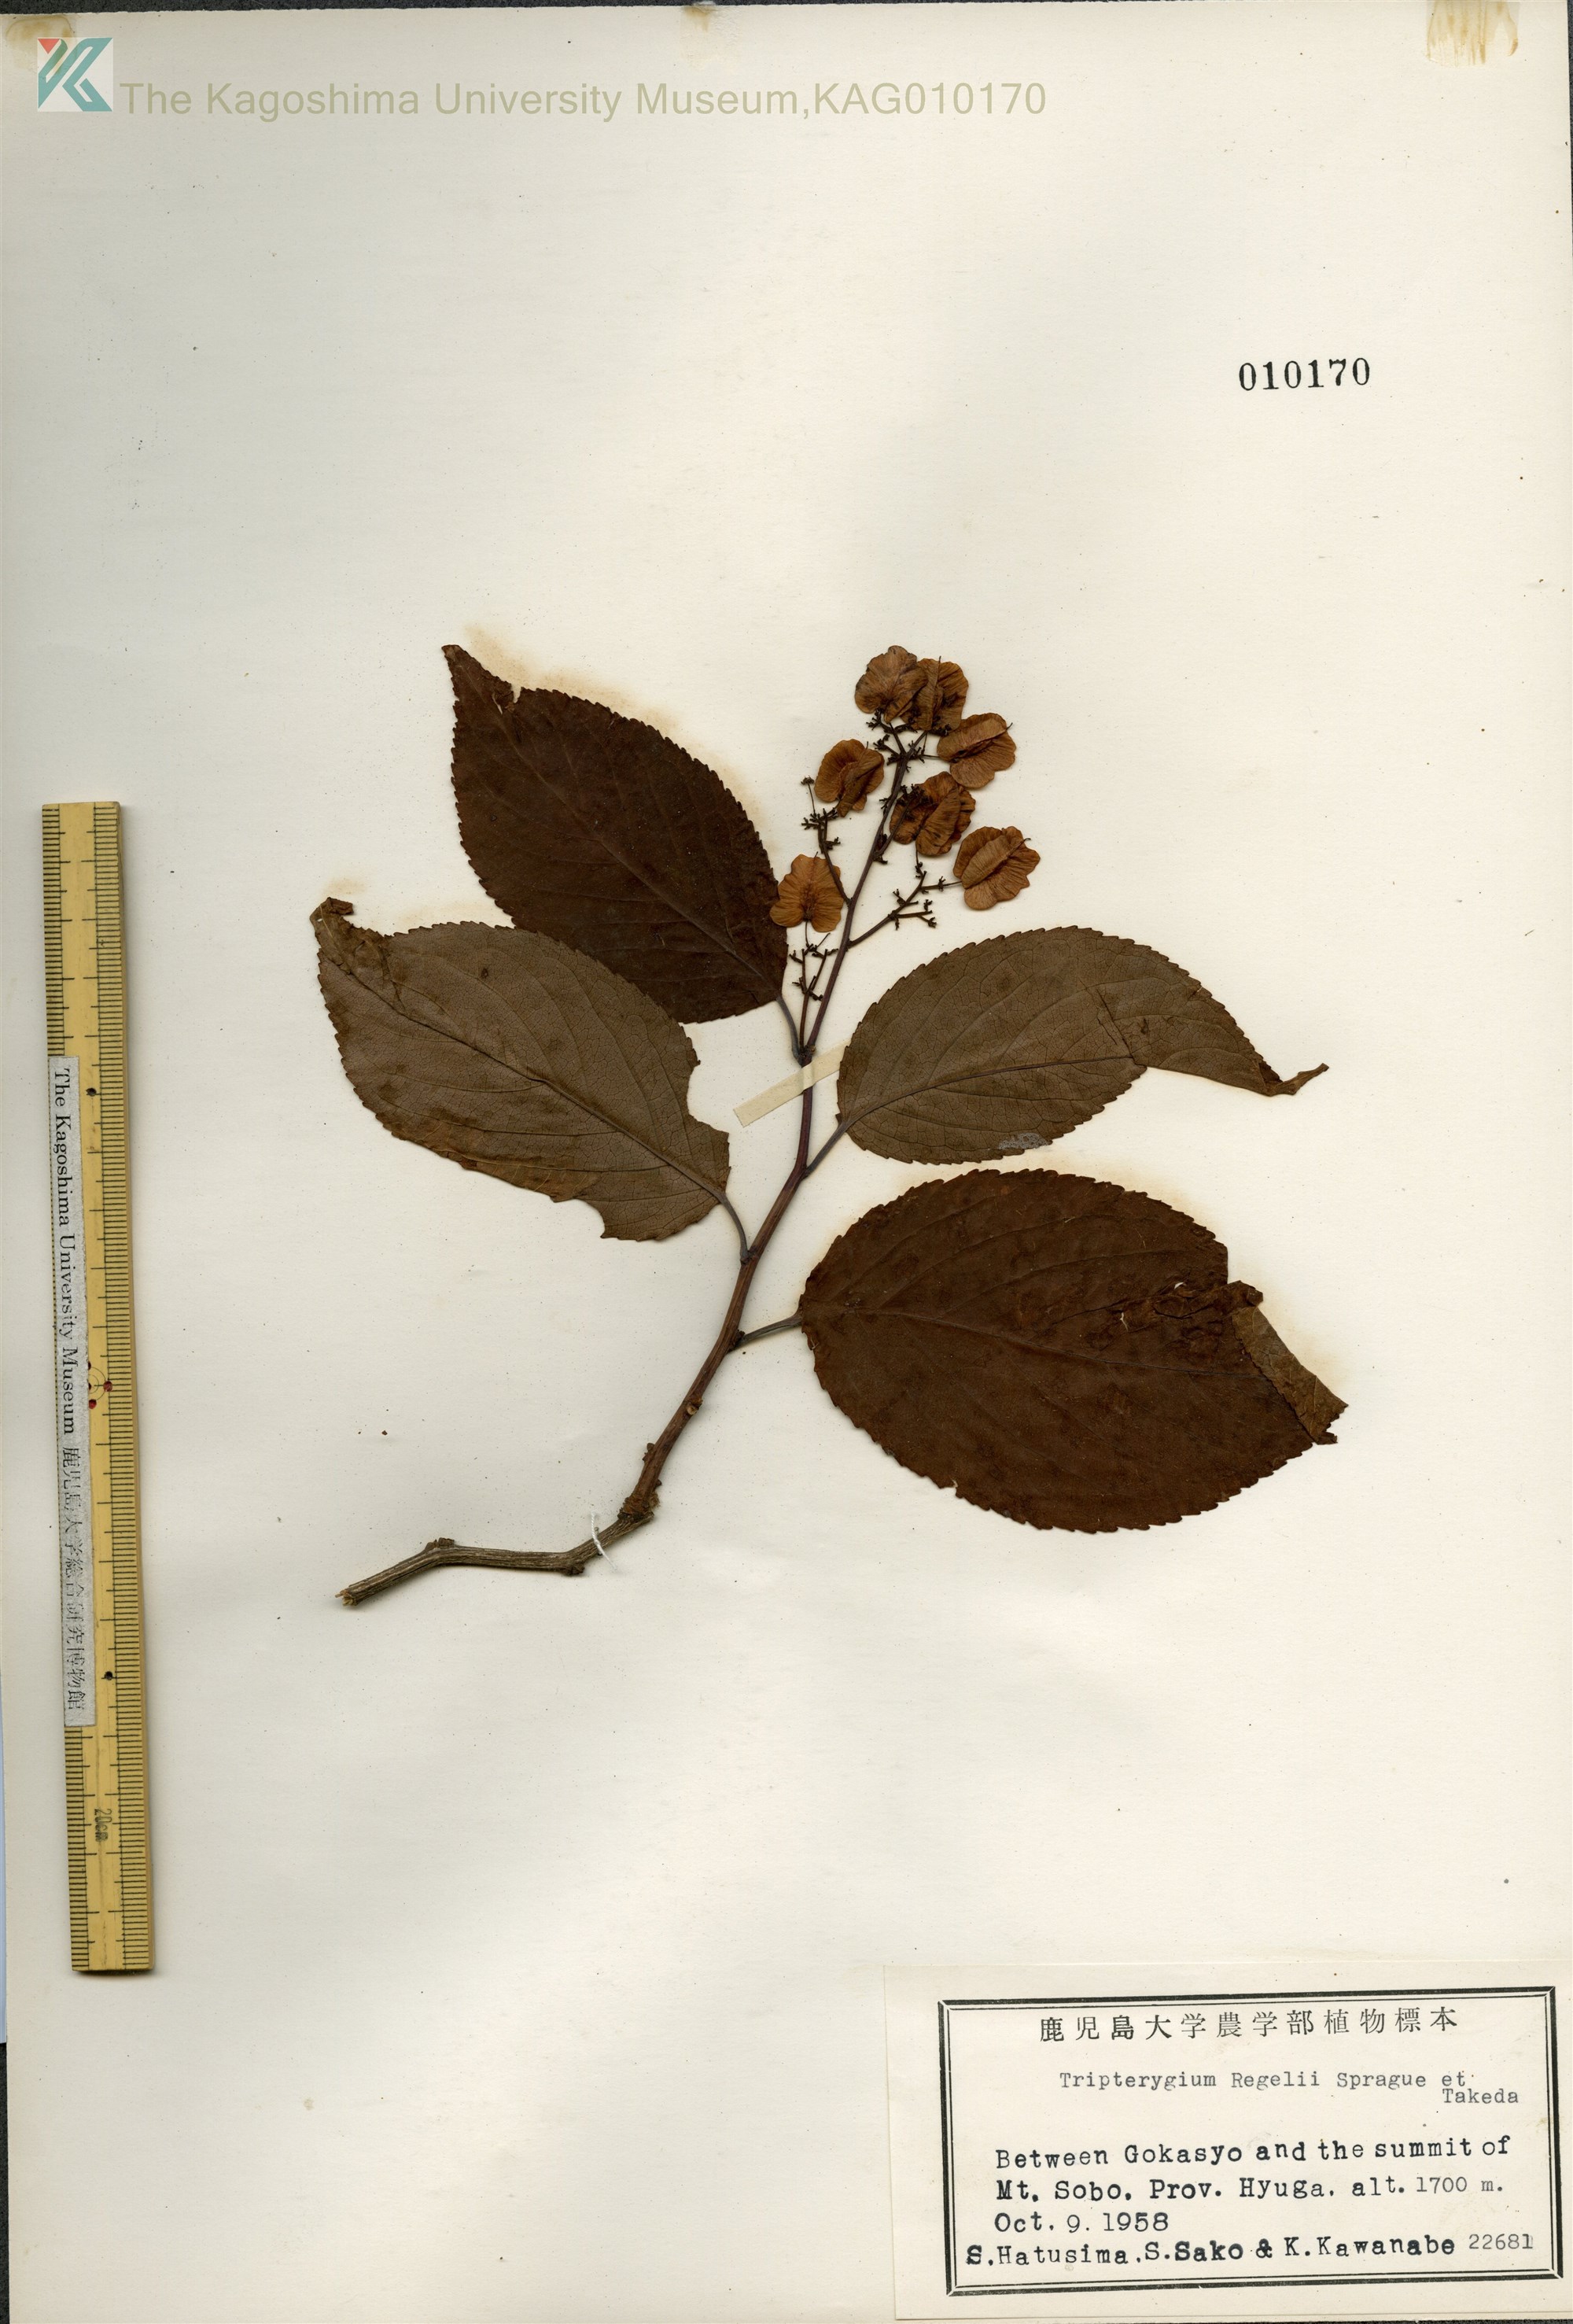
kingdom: Plantae
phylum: Tracheophyta
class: Magnoliopsida
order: Celastrales
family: Celastraceae
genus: Tripterygium
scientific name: Tripterygium wilfordii
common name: クロヅル
